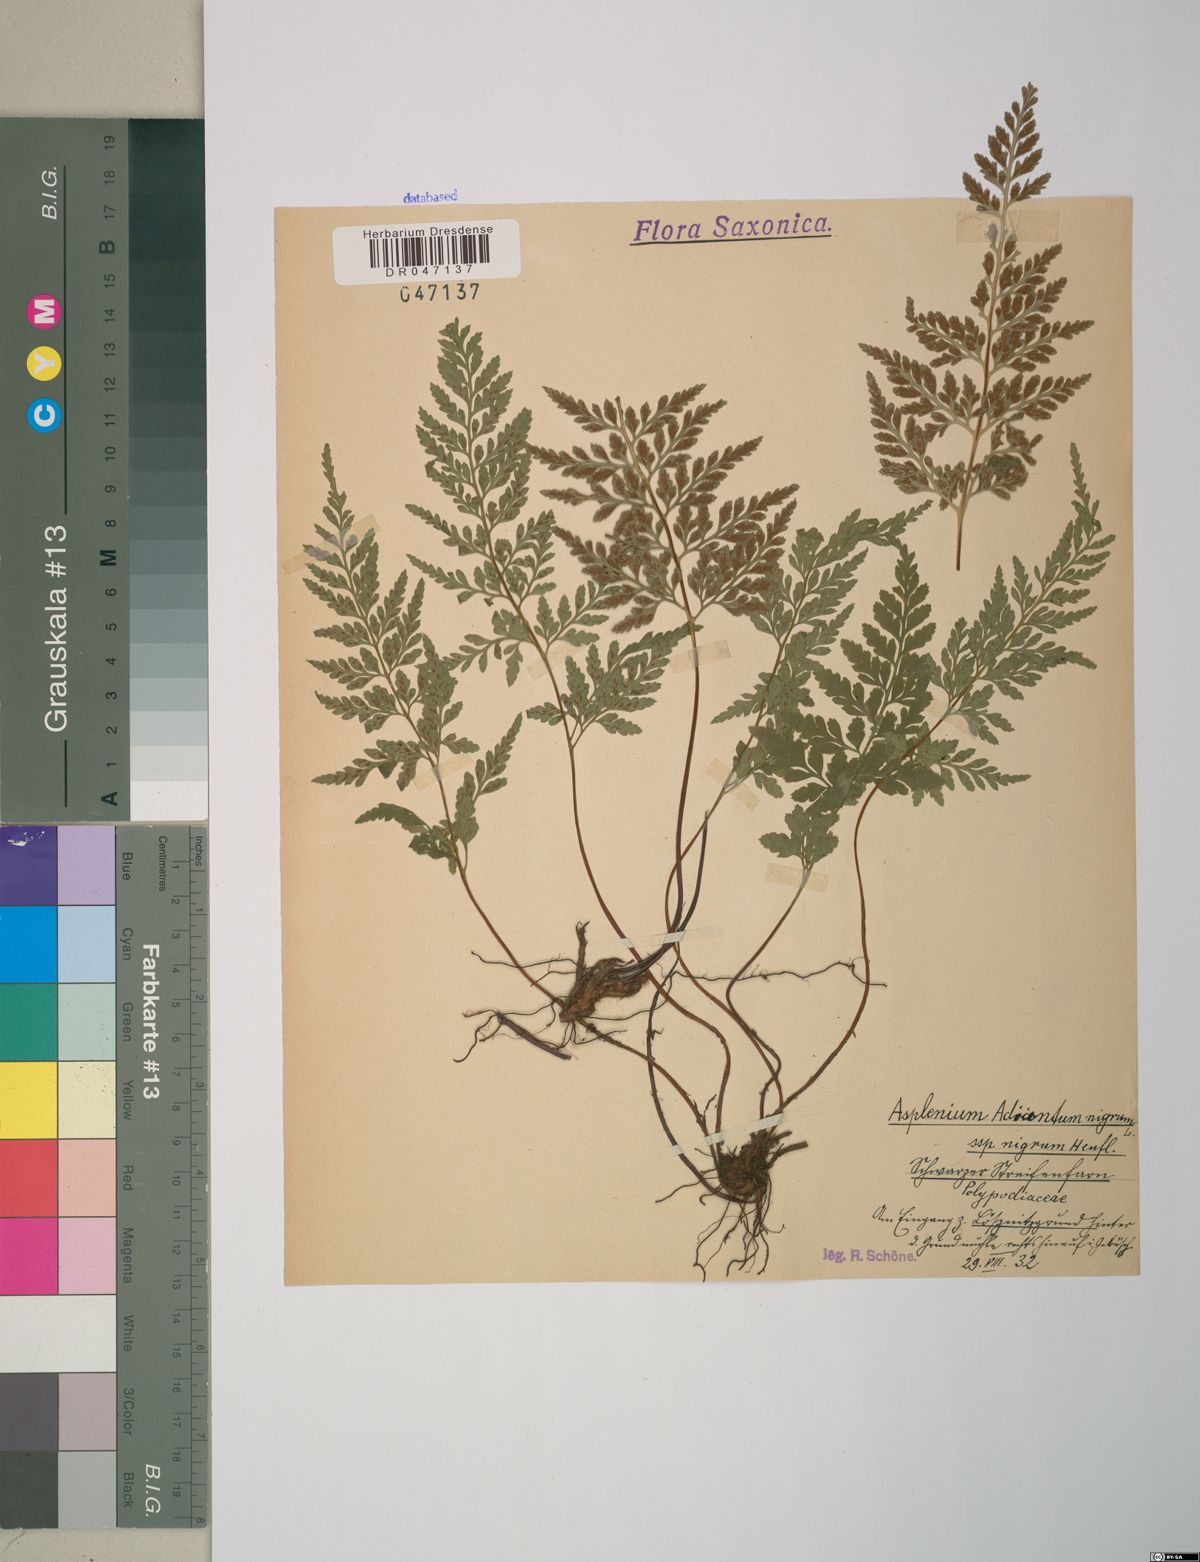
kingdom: Plantae
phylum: Tracheophyta
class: Polypodiopsida
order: Polypodiales
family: Aspleniaceae
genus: Asplenium
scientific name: Asplenium adiantum-nigrum
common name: Black spleenwort
